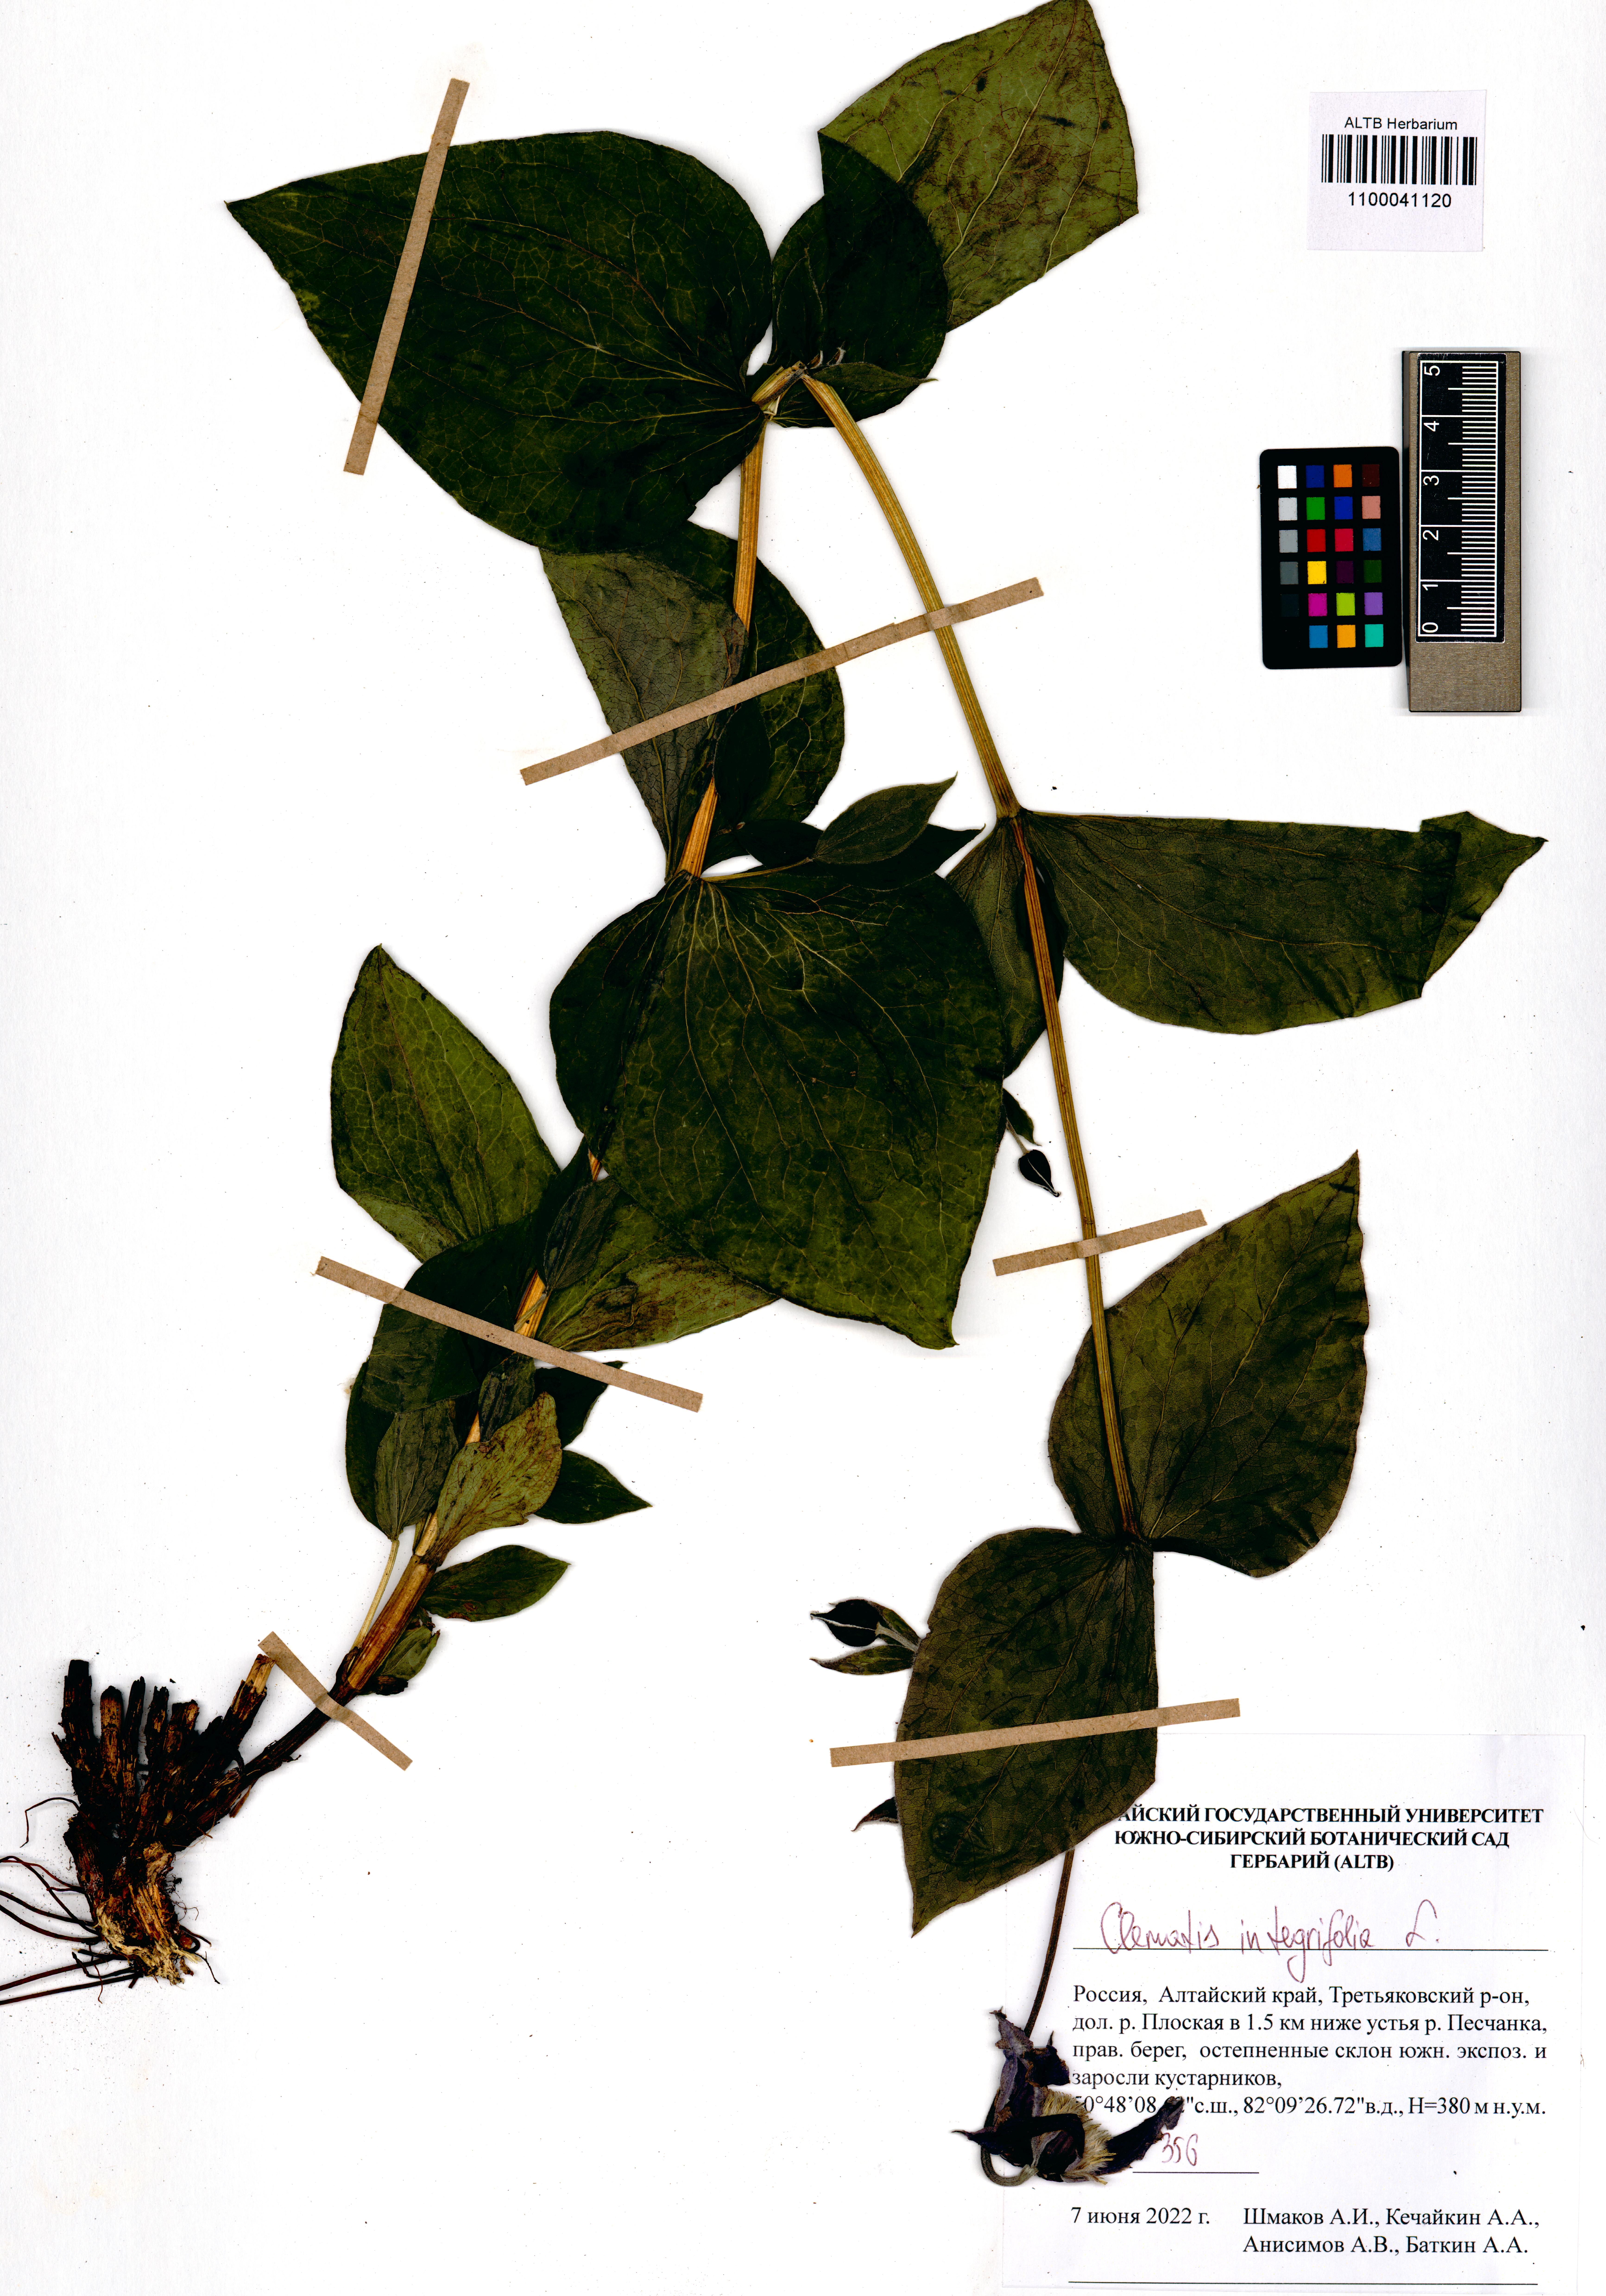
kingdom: Plantae
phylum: Tracheophyta
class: Magnoliopsida
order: Ranunculales
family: Ranunculaceae
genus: Clematis
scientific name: Clematis integrifolia
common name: Solitary clematis
